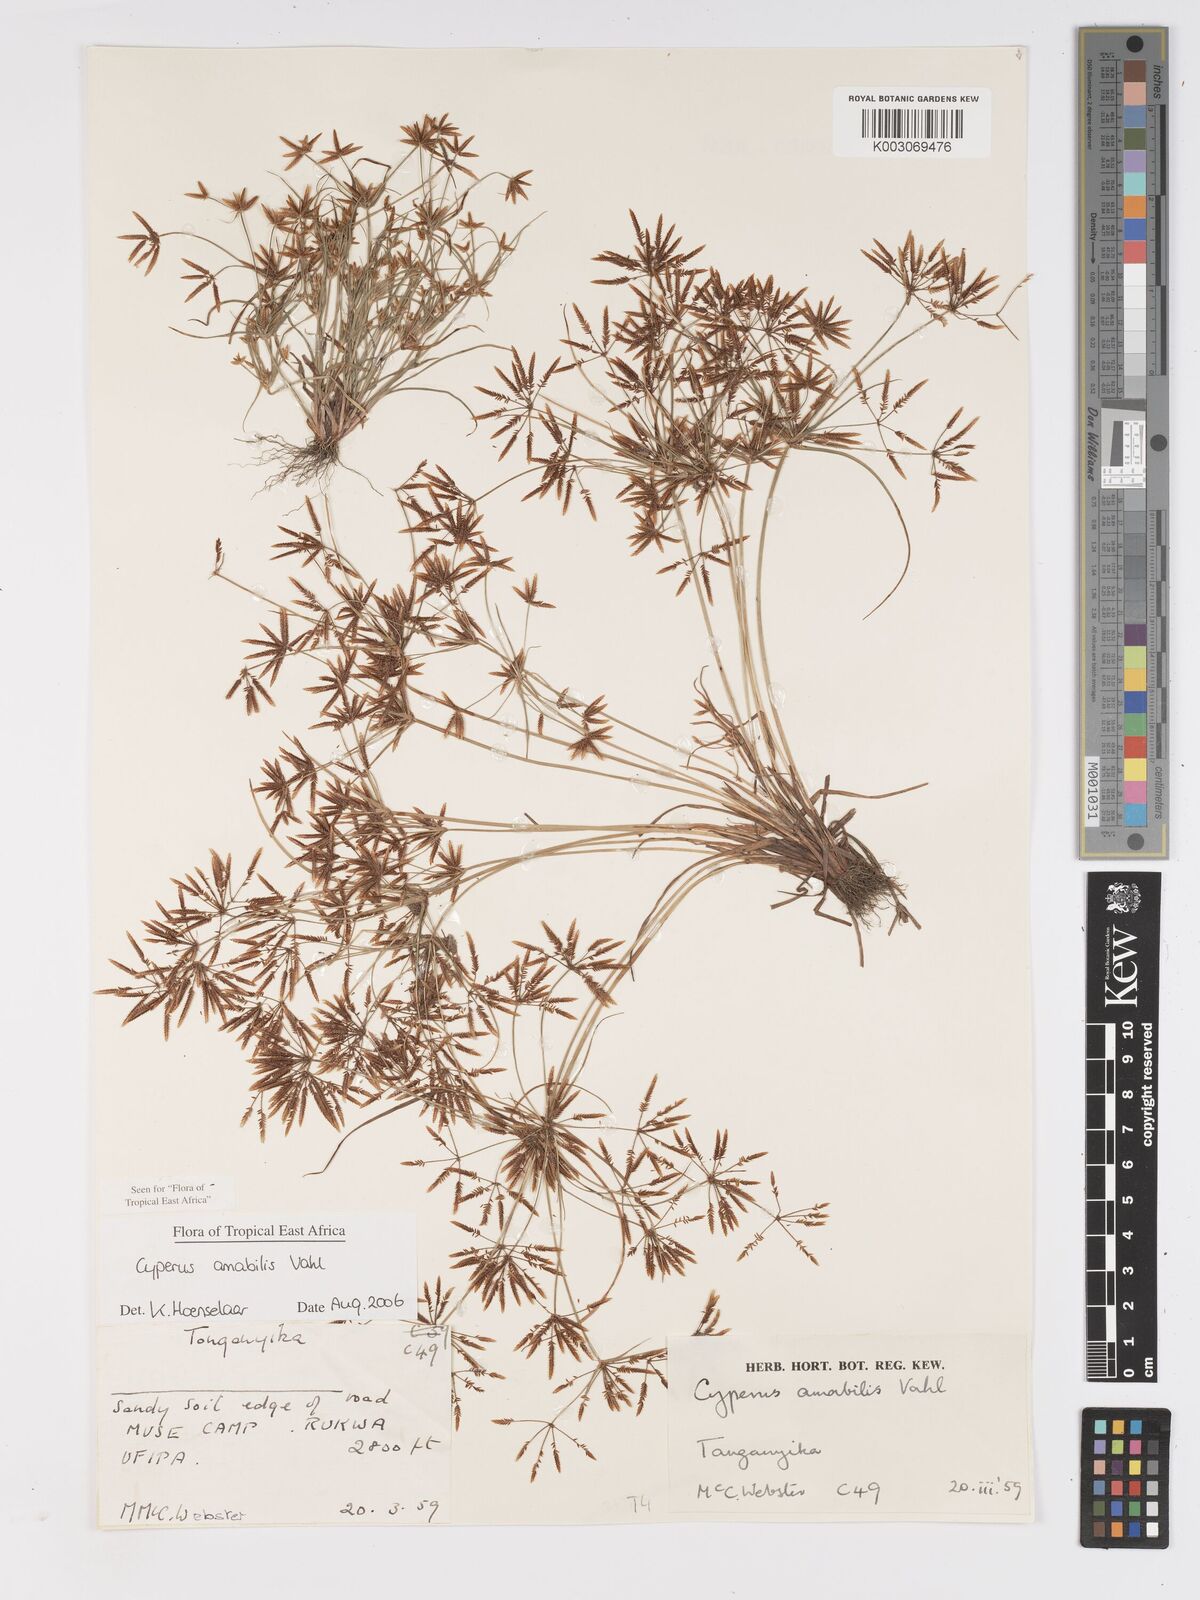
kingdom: Plantae
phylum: Tracheophyta
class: Liliopsida
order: Poales
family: Cyperaceae
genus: Cyperus
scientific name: Cyperus amabilis
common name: Foothill flat sedge
